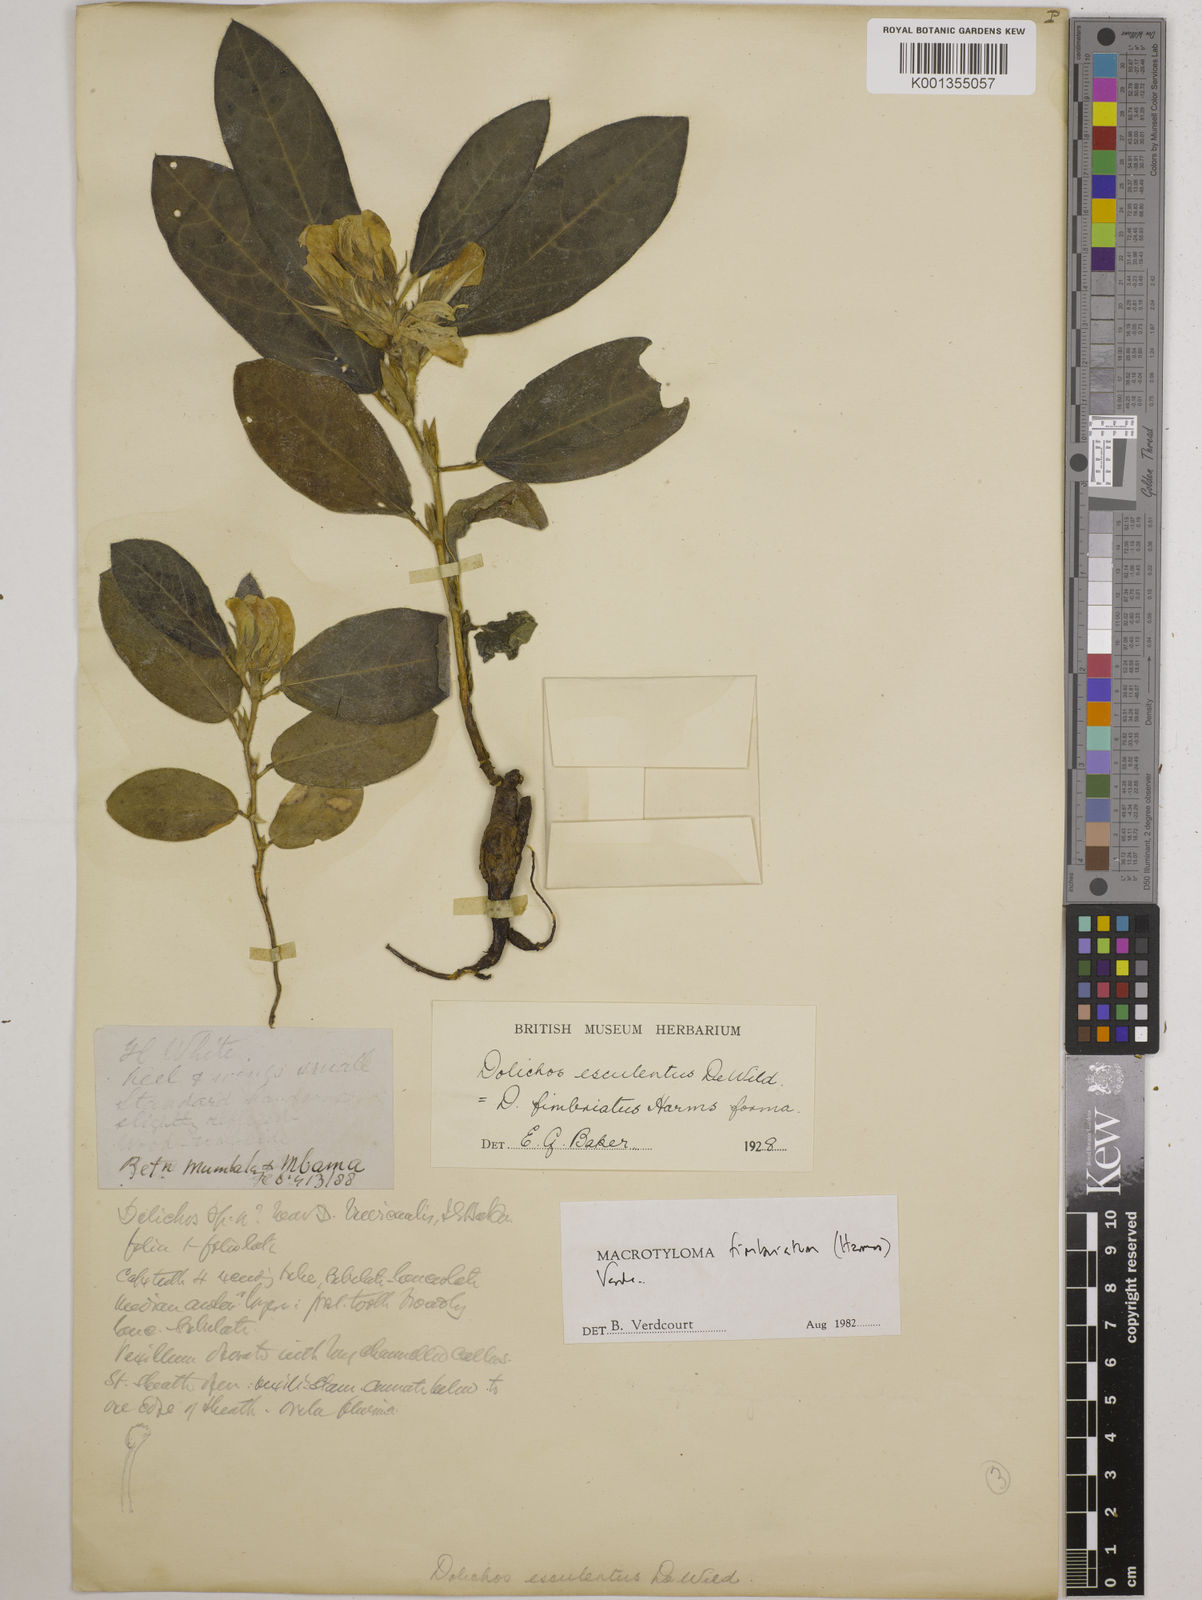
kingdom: Plantae
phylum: Tracheophyta
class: Magnoliopsida
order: Fabales
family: Fabaceae
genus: Macrotyloma
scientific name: Macrotyloma fimbriatum
